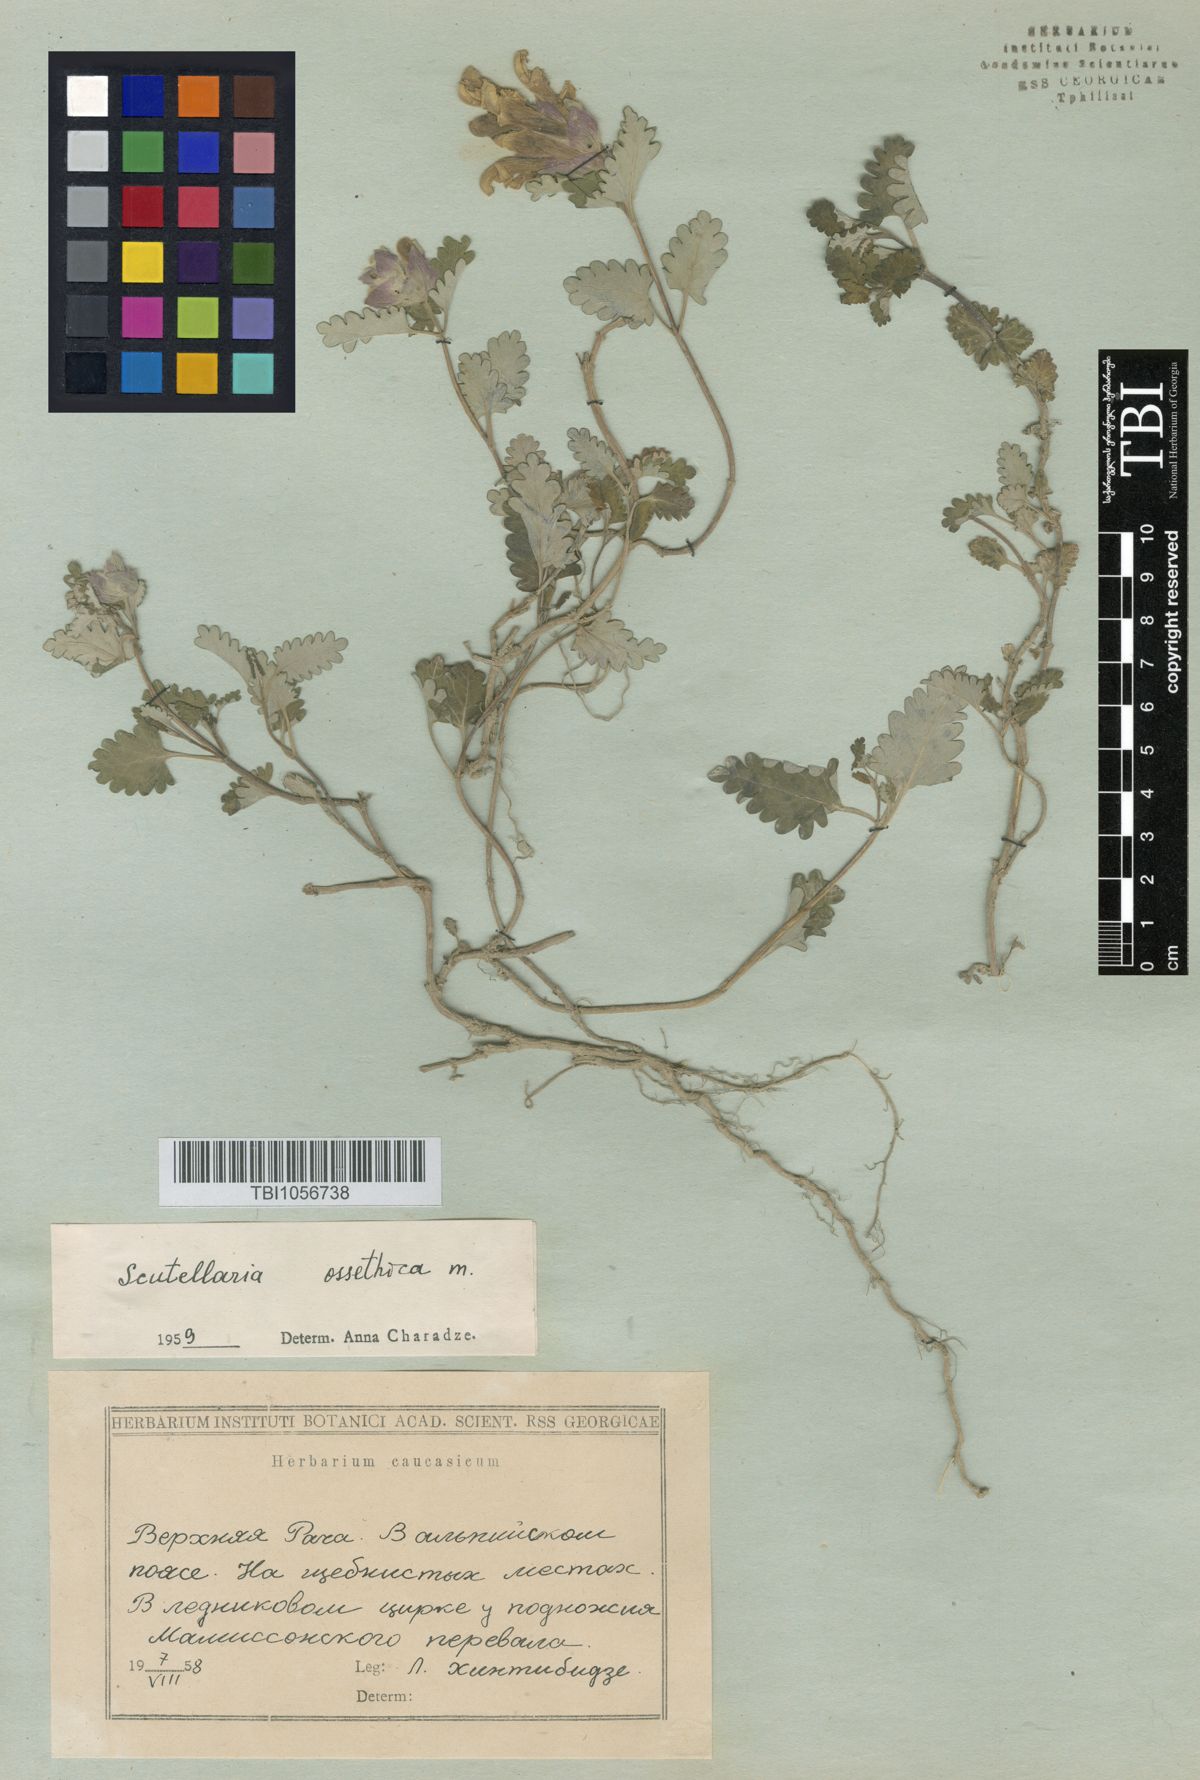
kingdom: Plantae
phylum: Tracheophyta
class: Magnoliopsida
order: Lamiales
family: Lamiaceae
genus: Scutellaria
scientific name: Scutellaria ossethica
